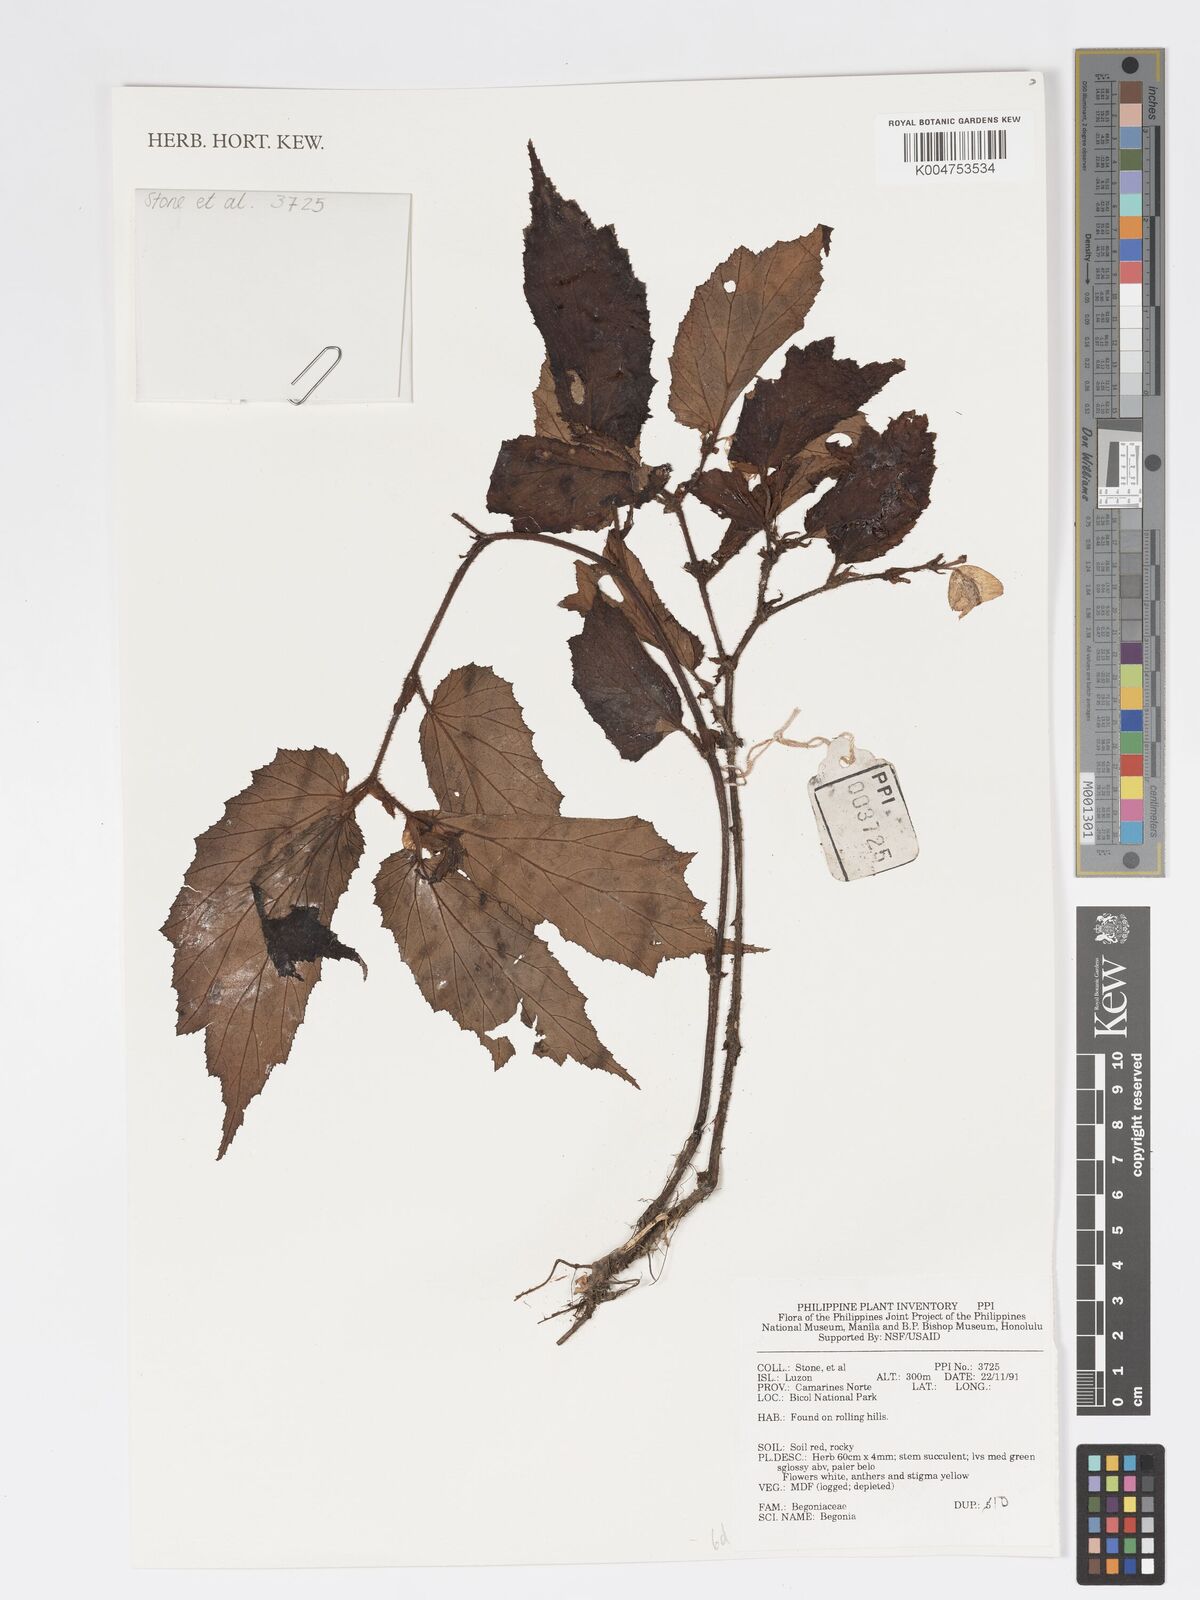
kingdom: Plantae
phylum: Tracheophyta
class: Magnoliopsida
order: Cucurbitales
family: Begoniaceae
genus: Begonia
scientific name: Begonia
